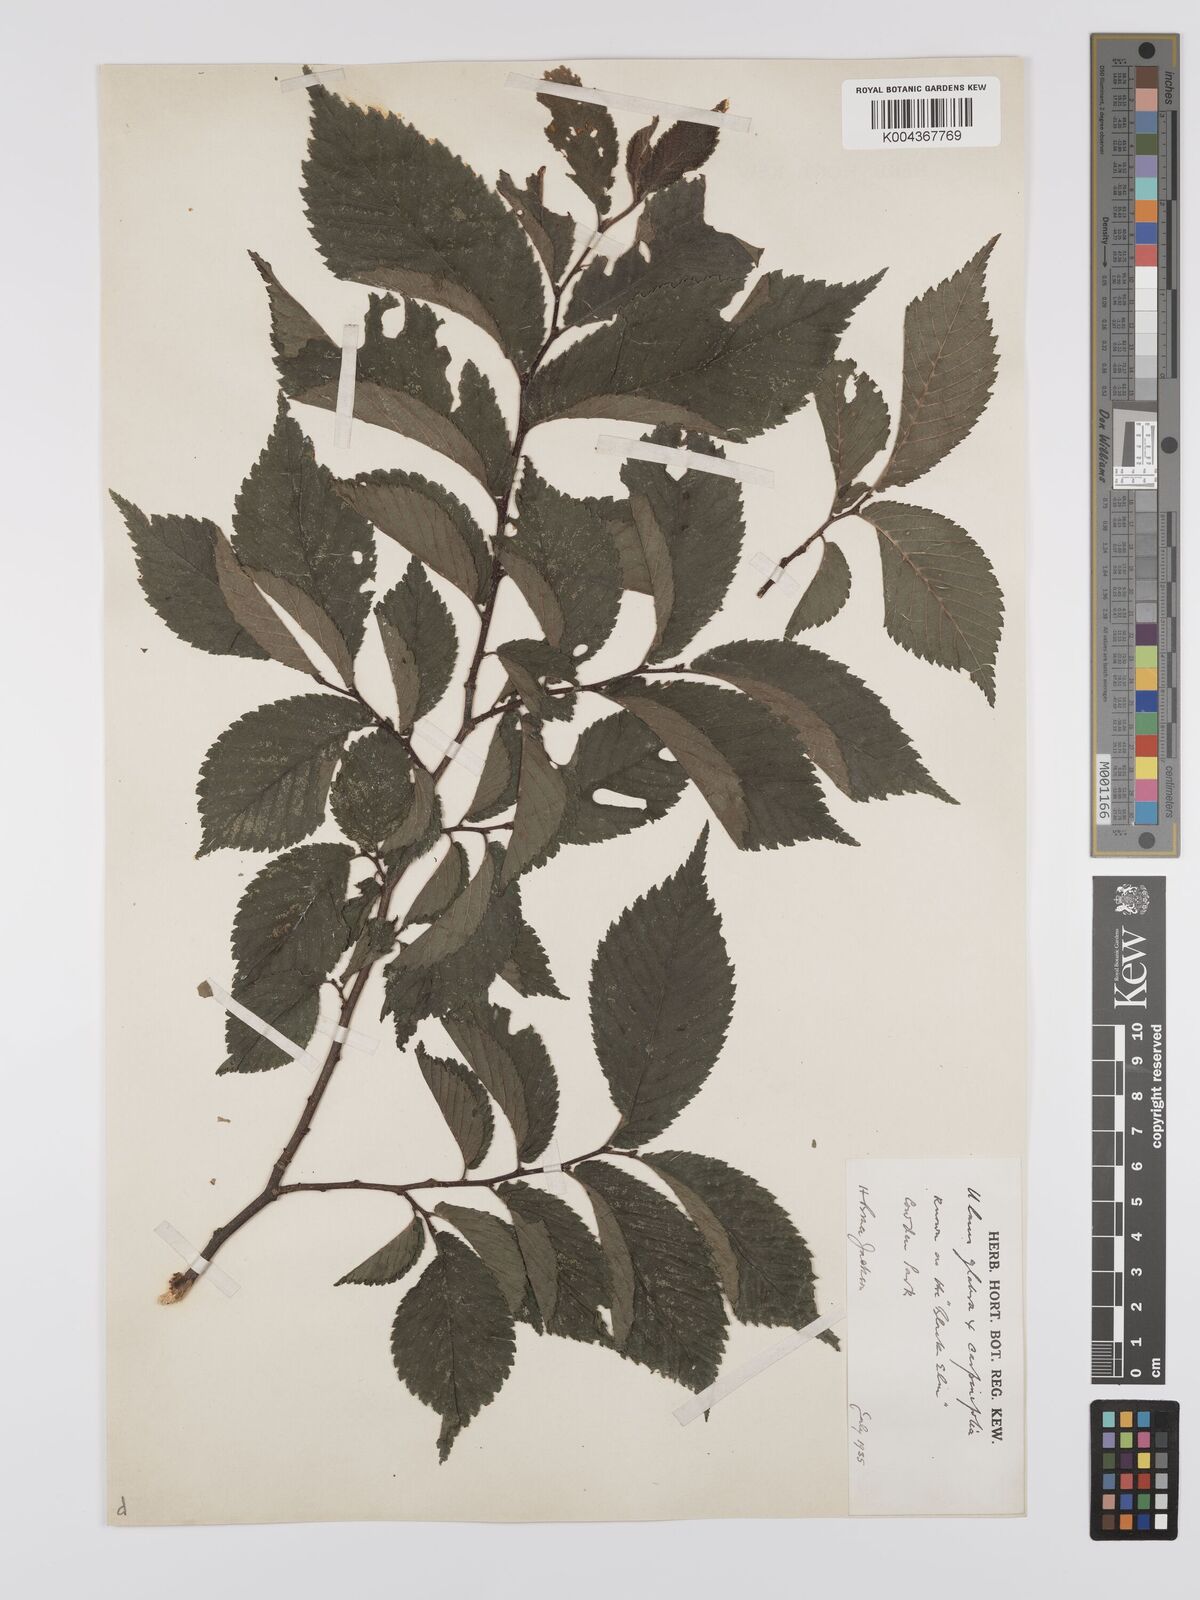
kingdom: Plantae
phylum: Tracheophyta
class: Magnoliopsida
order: Rosales
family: Ulmaceae
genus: Ulmus
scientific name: Ulmus
